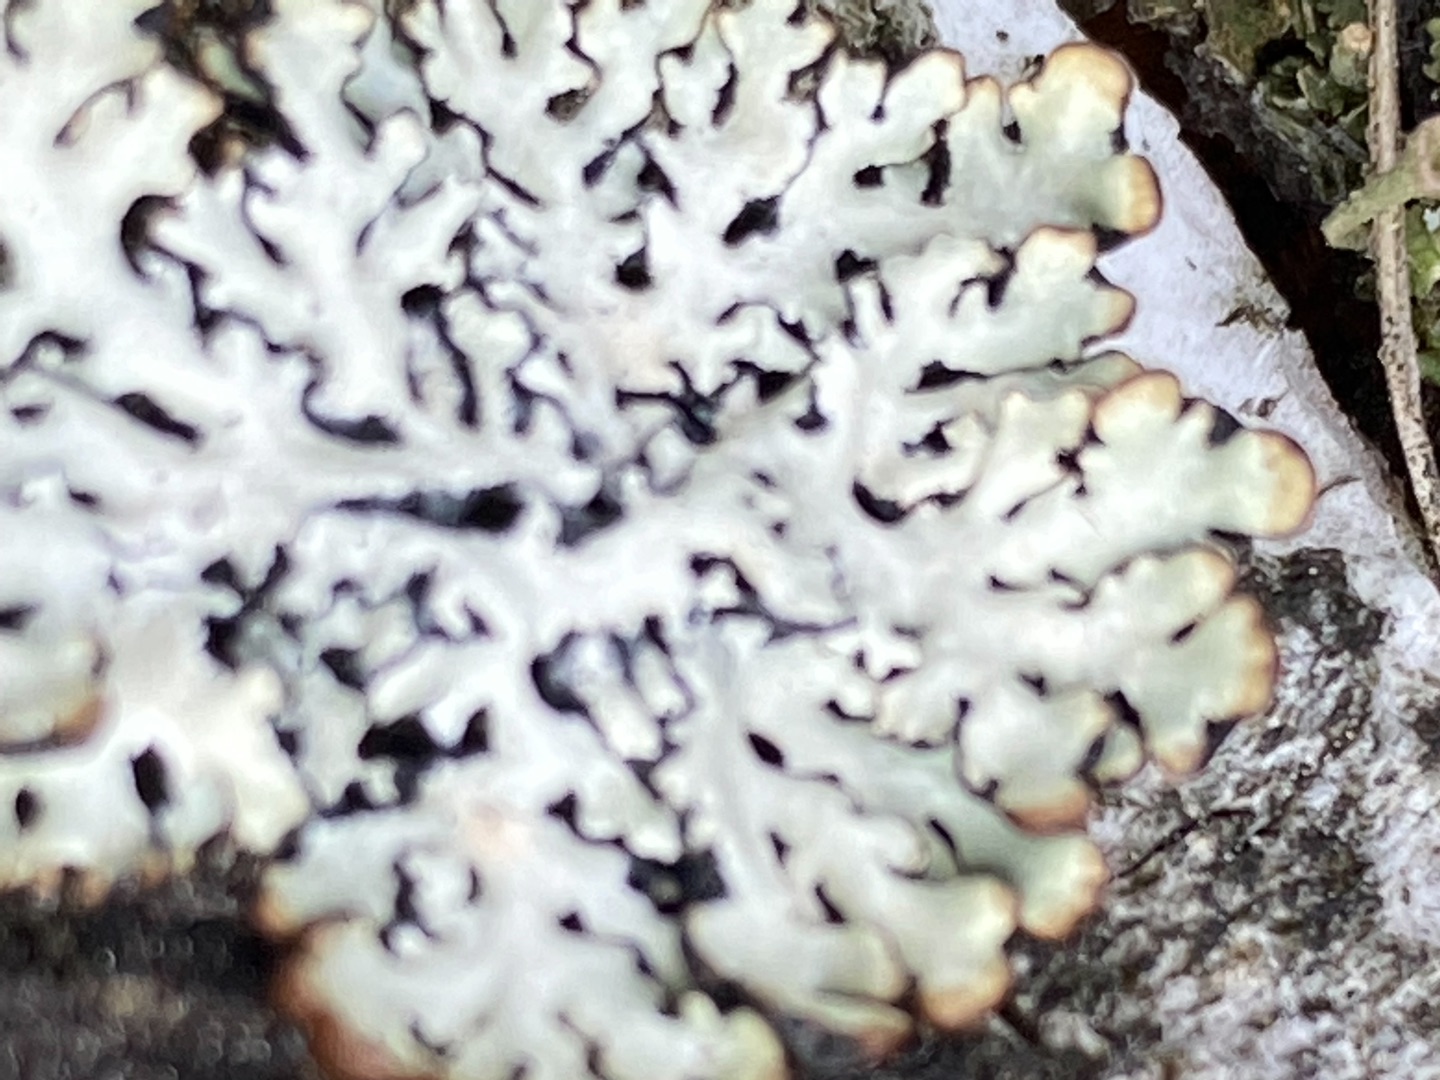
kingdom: Fungi
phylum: Ascomycota
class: Lecanoromycetes
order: Lecanorales
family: Parmeliaceae
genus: Hypogymnia
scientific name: Hypogymnia physodes
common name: Almindelig kvistlav
